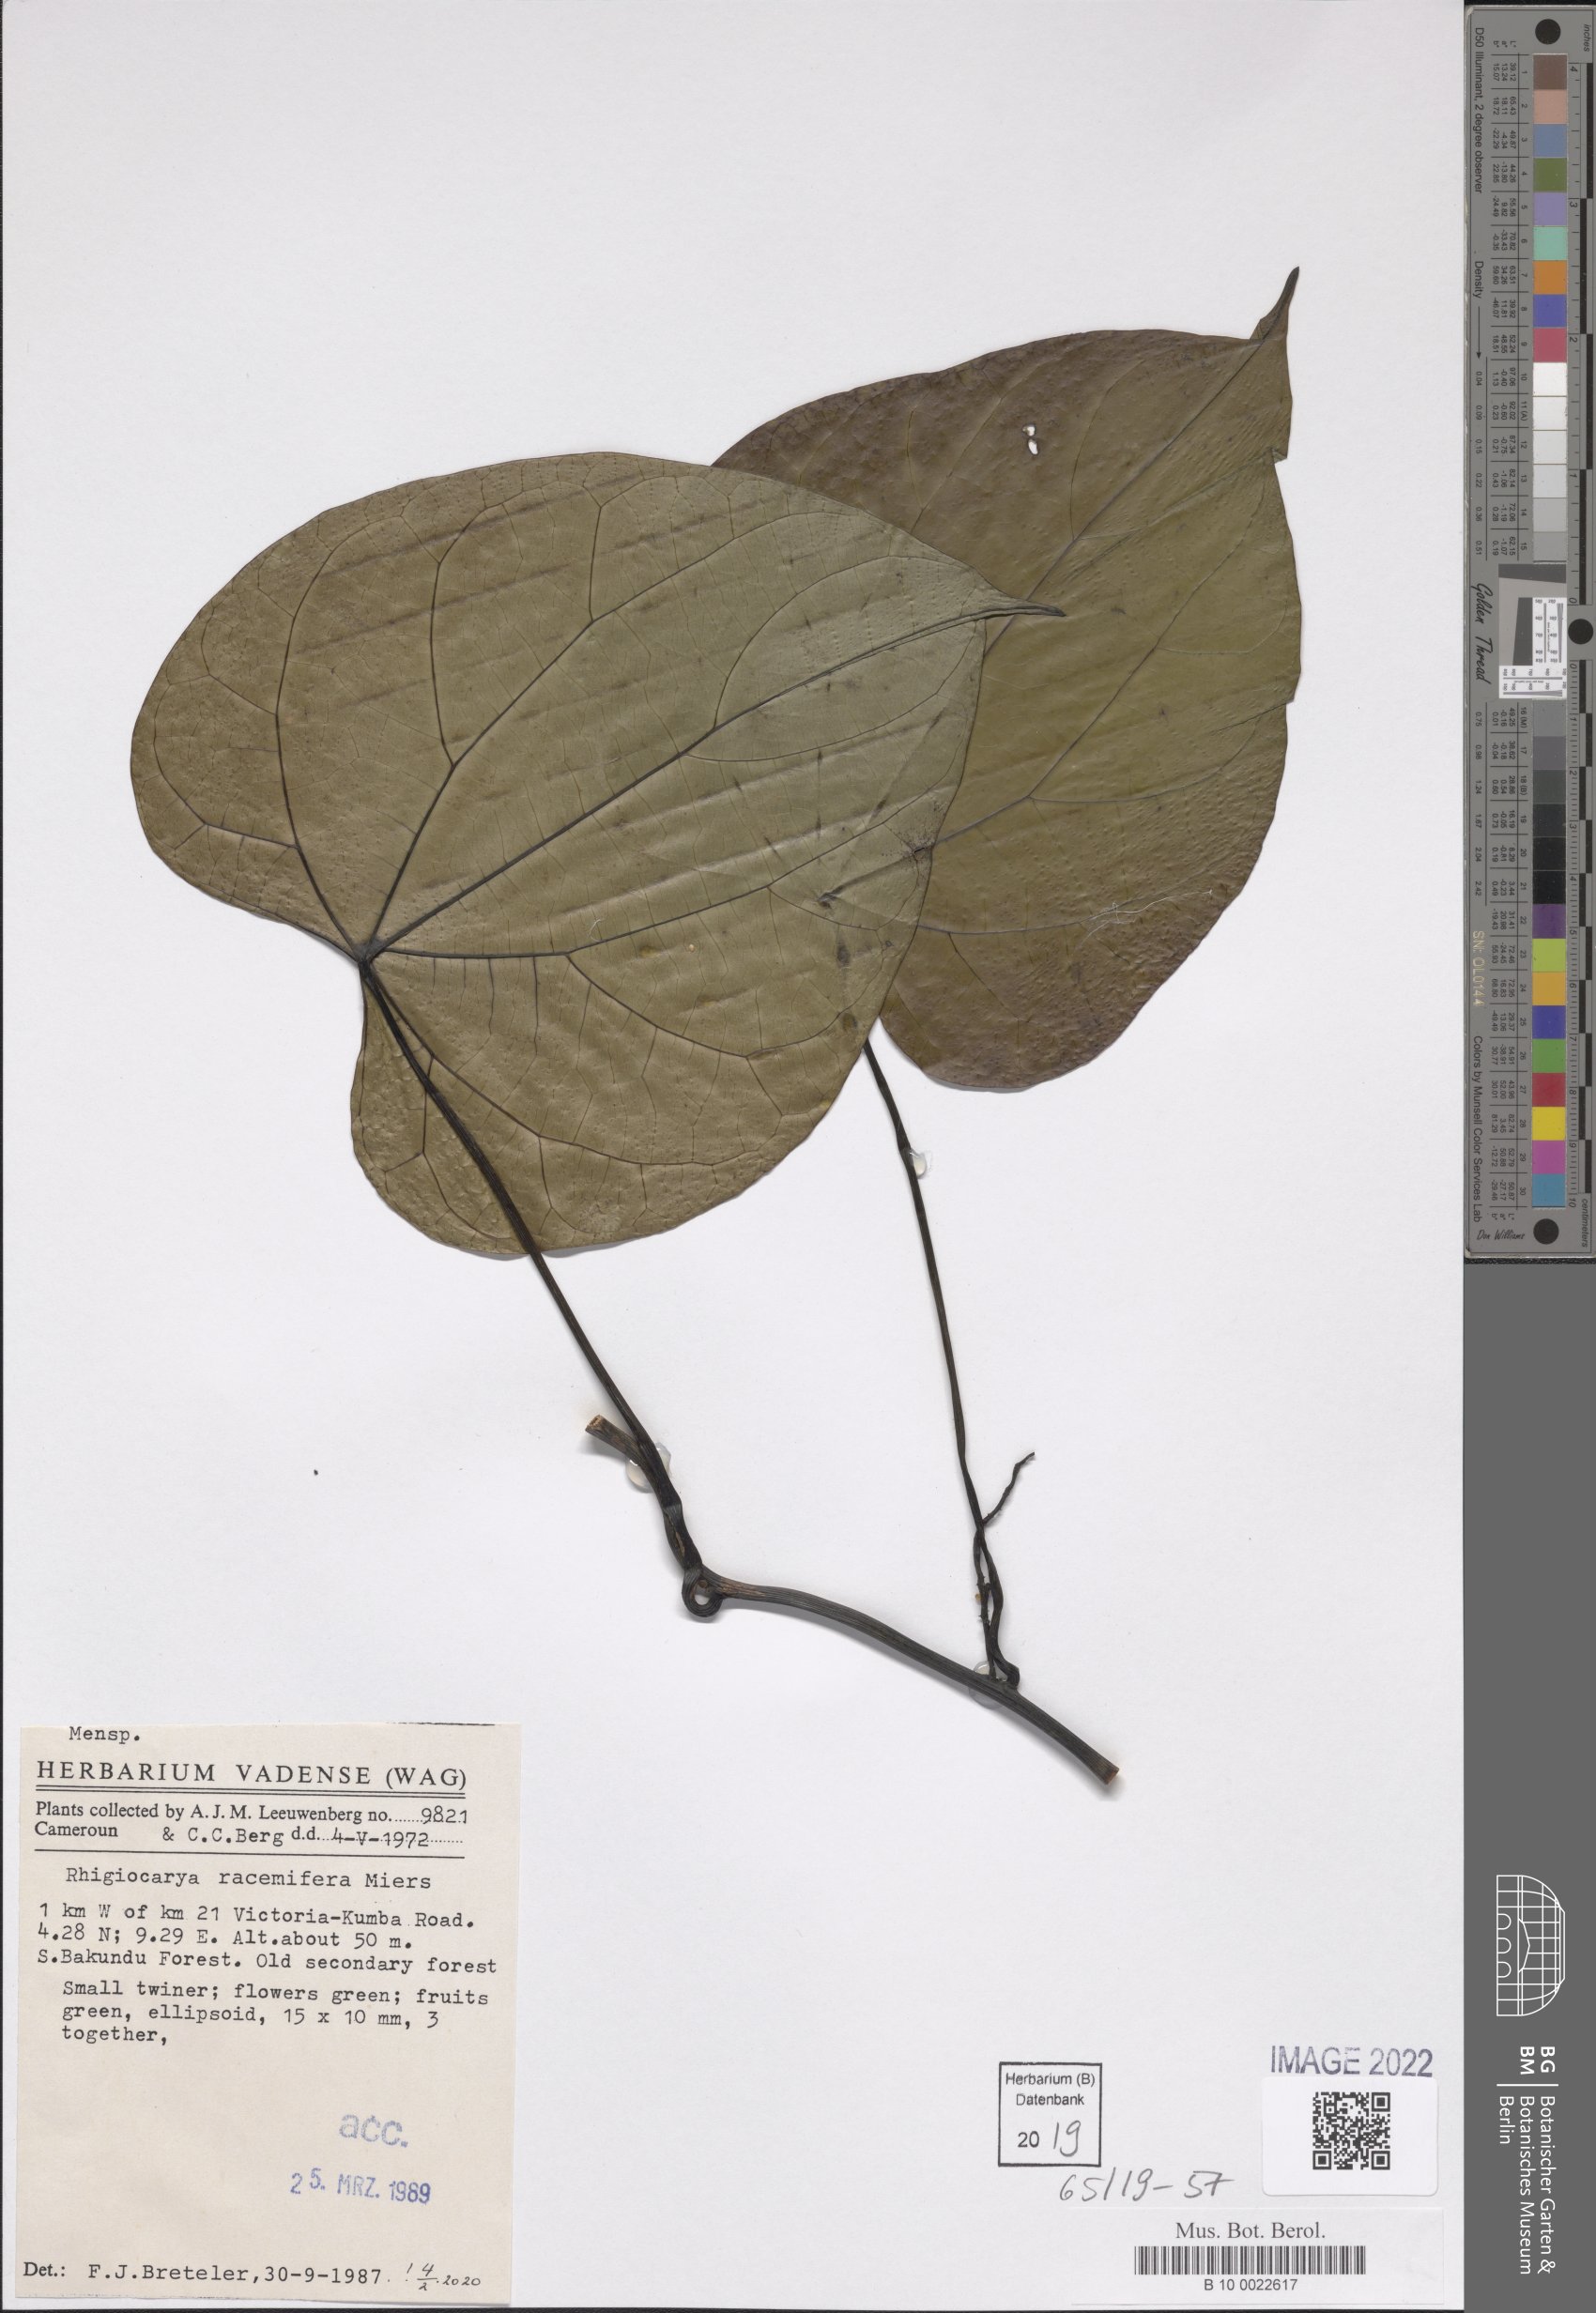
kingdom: Plantae
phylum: Tracheophyta
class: Magnoliopsida
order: Ranunculales
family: Menispermaceae
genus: Rhigiocarya
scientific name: Rhigiocarya racemifera
